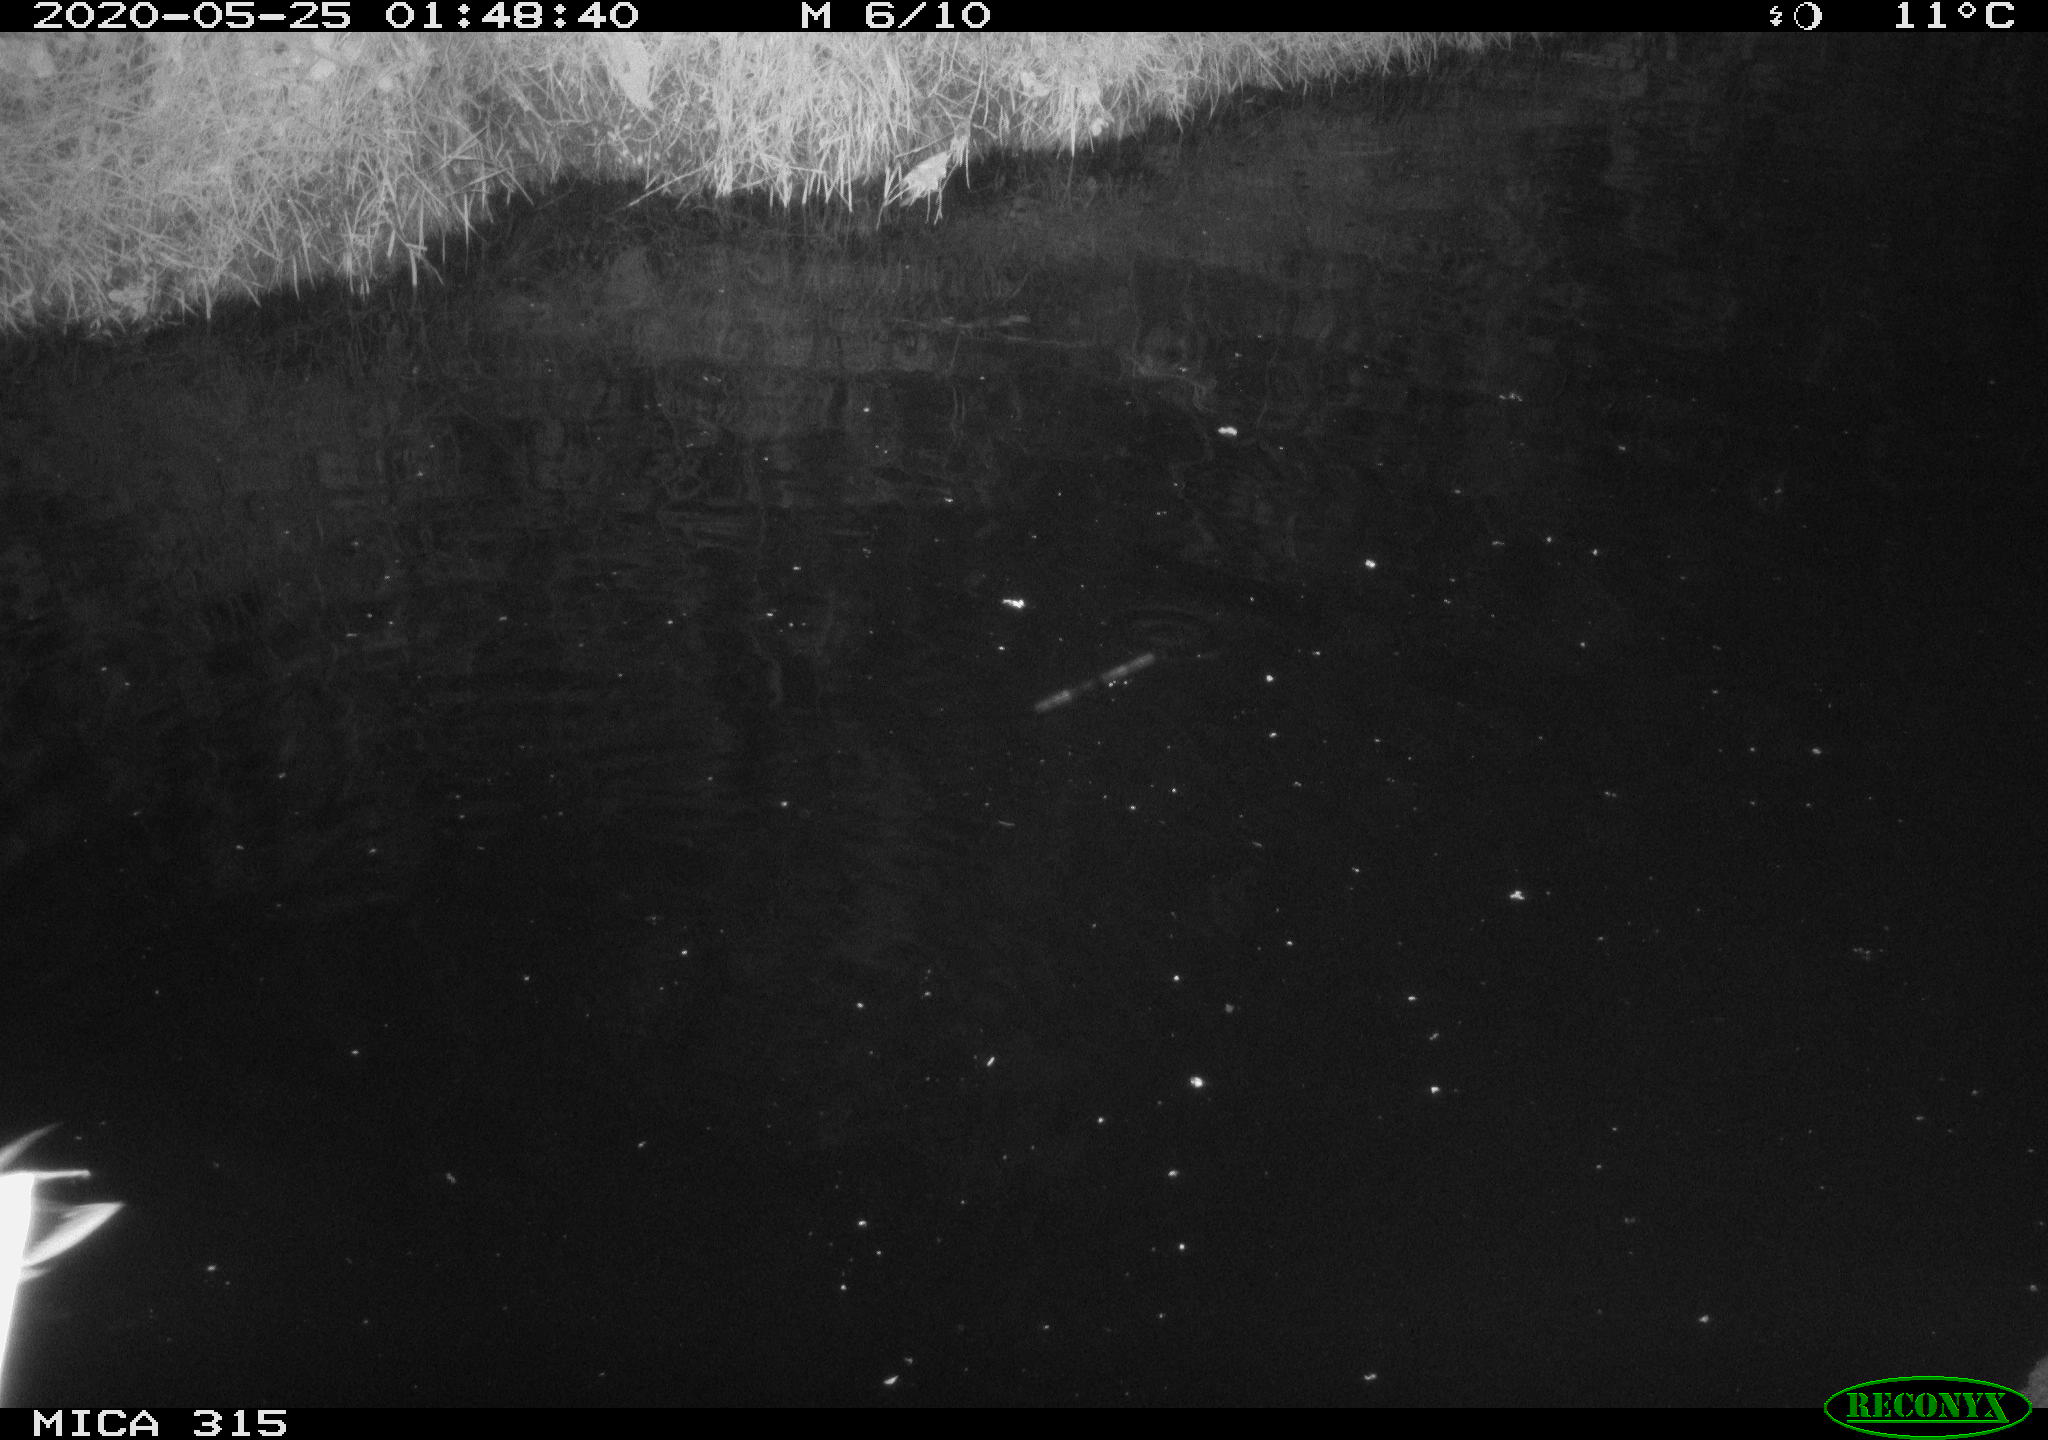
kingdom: Animalia
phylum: Chordata
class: Aves
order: Anseriformes
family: Anatidae
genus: Anas
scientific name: Anas platyrhynchos
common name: Mallard
